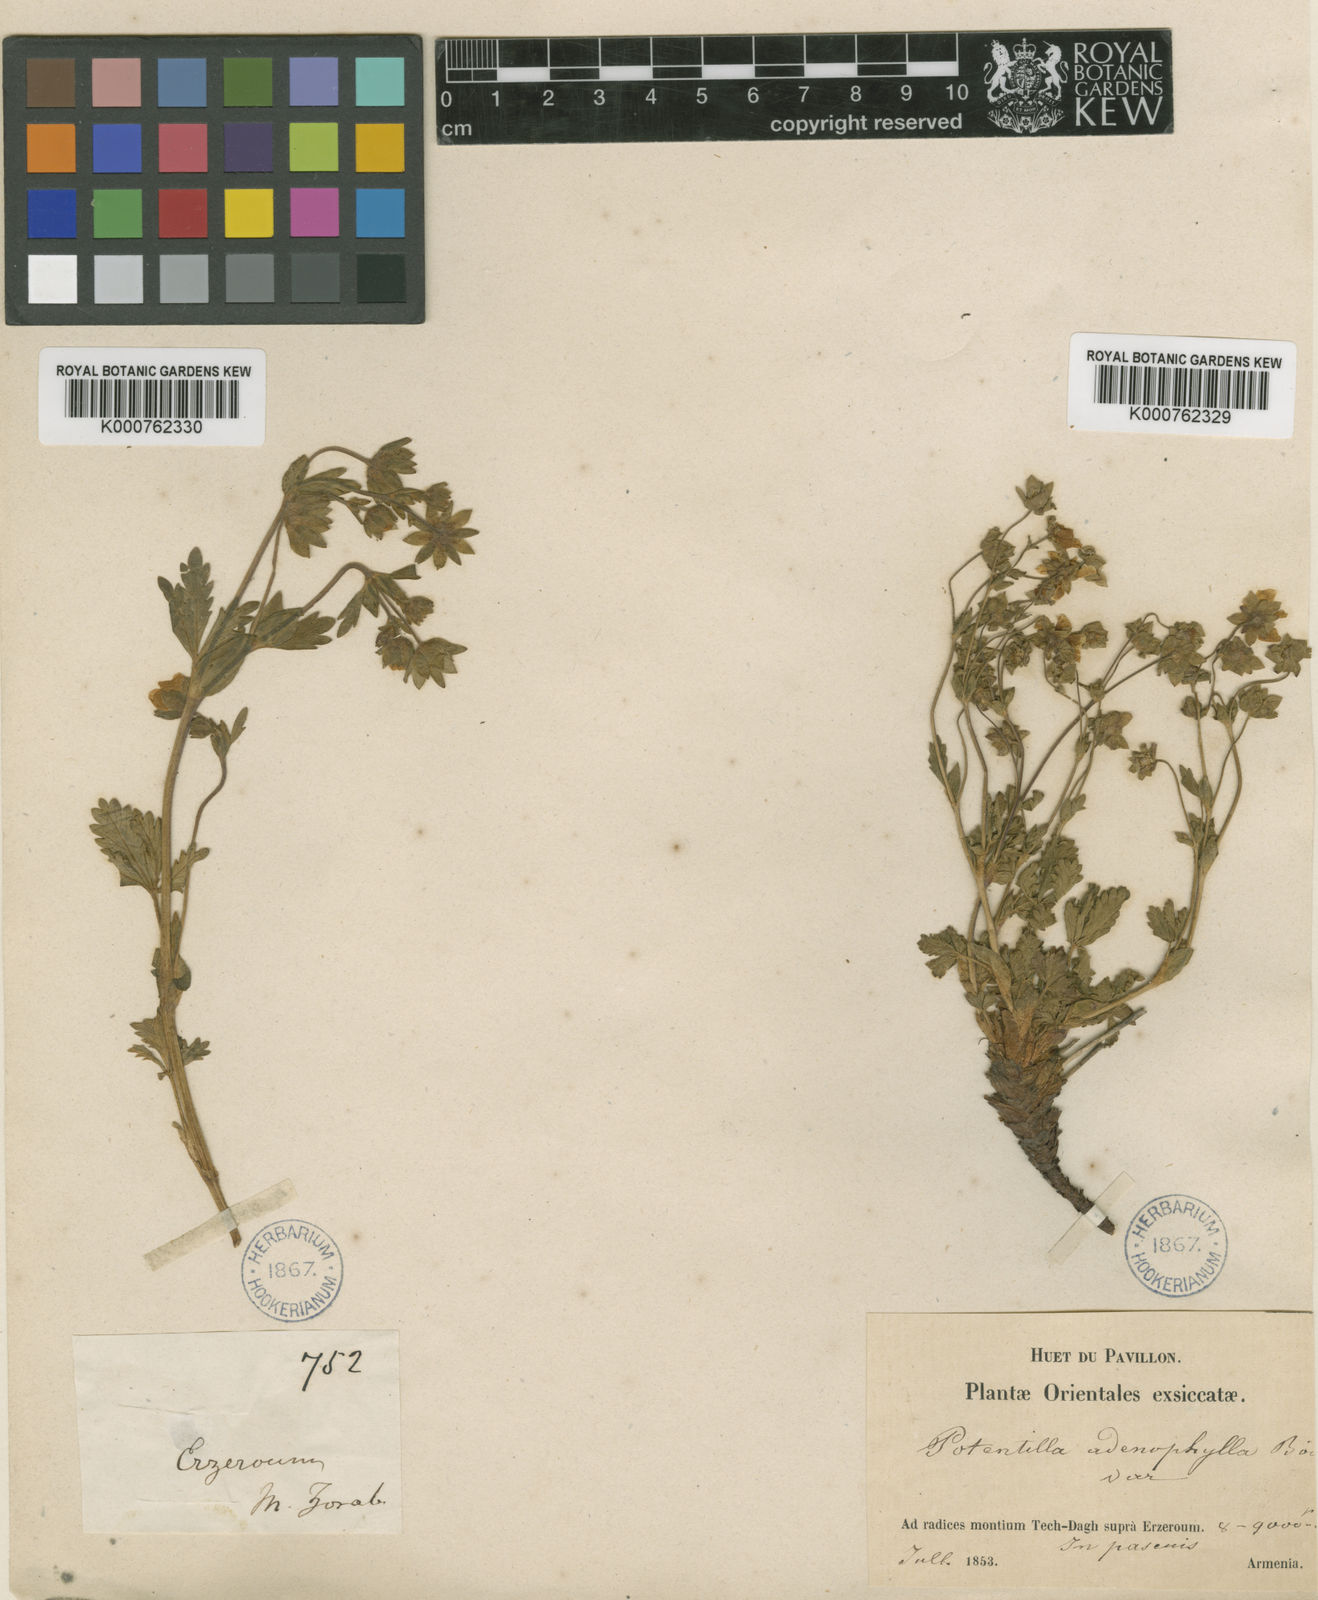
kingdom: Plantae
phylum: Tracheophyta
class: Magnoliopsida
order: Rosales
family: Rosaceae
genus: Potentilla
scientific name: Potentilla humifusa
